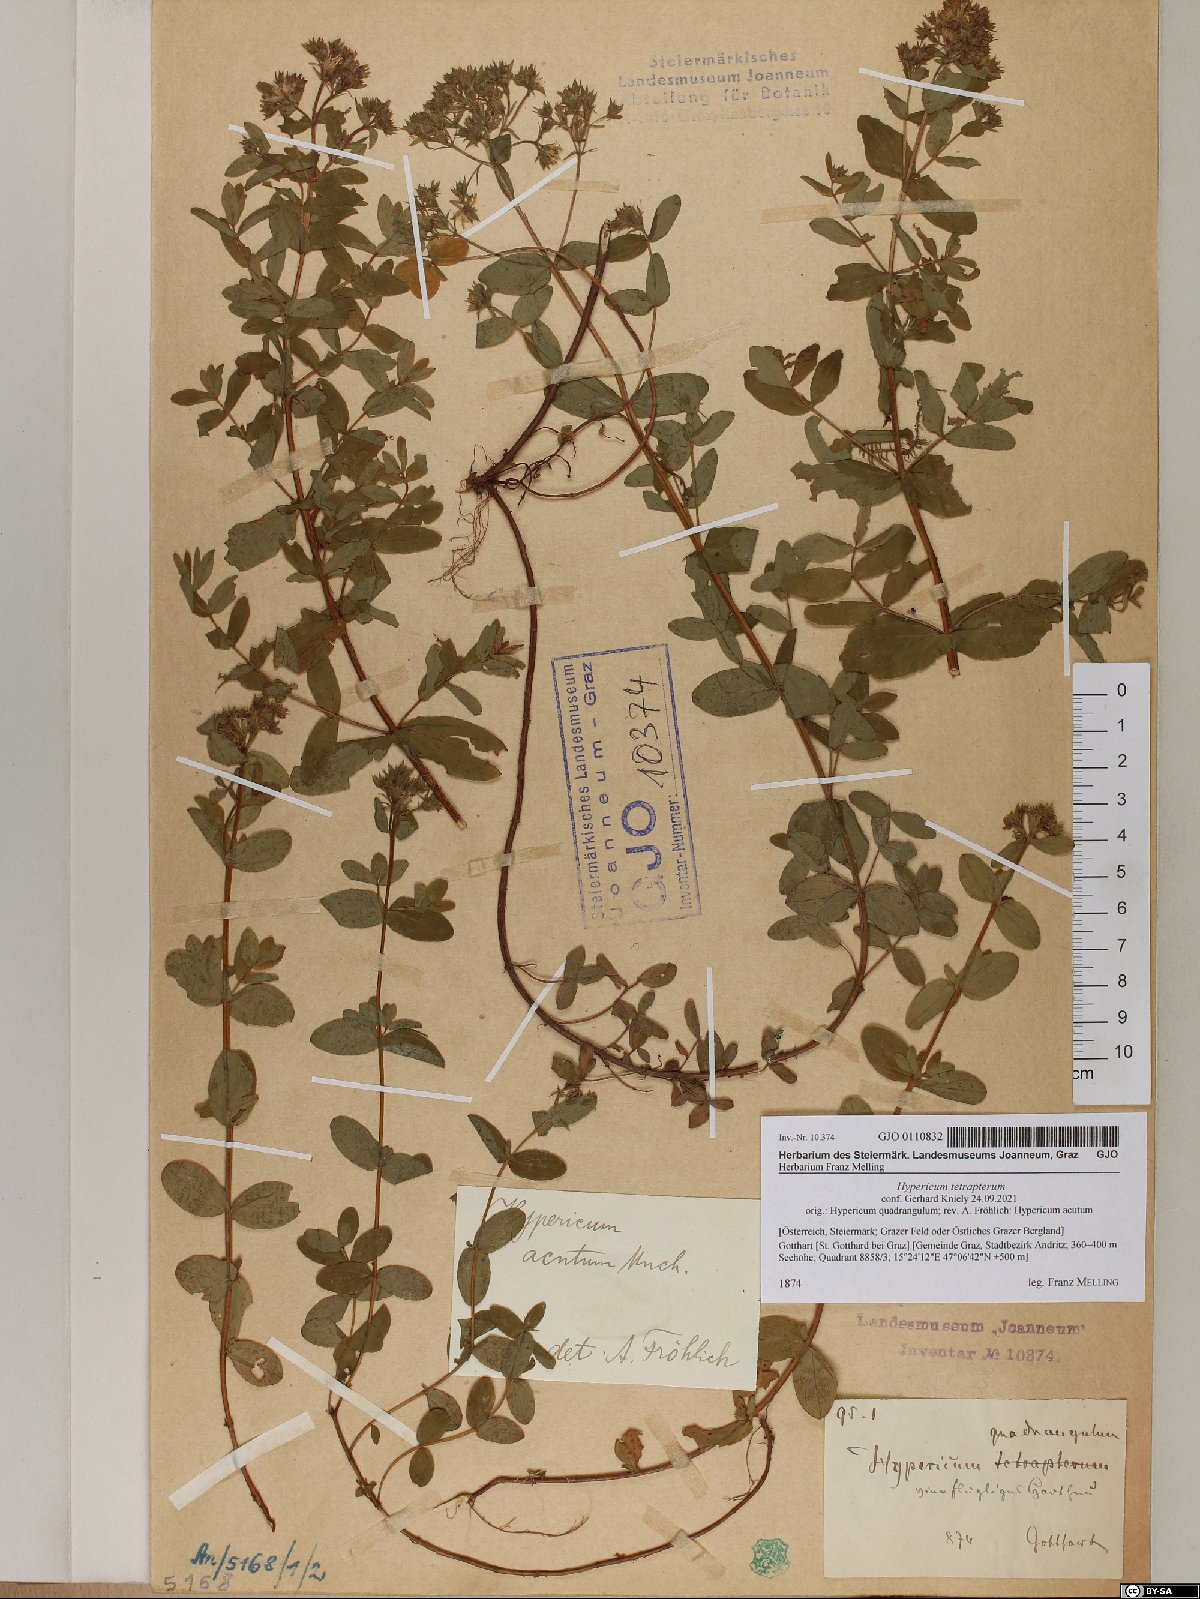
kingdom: Plantae
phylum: Tracheophyta
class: Magnoliopsida
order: Malpighiales
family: Hypericaceae
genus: Hypericum
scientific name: Hypericum tetrapterum
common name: Square-stalked st. john's-wort
